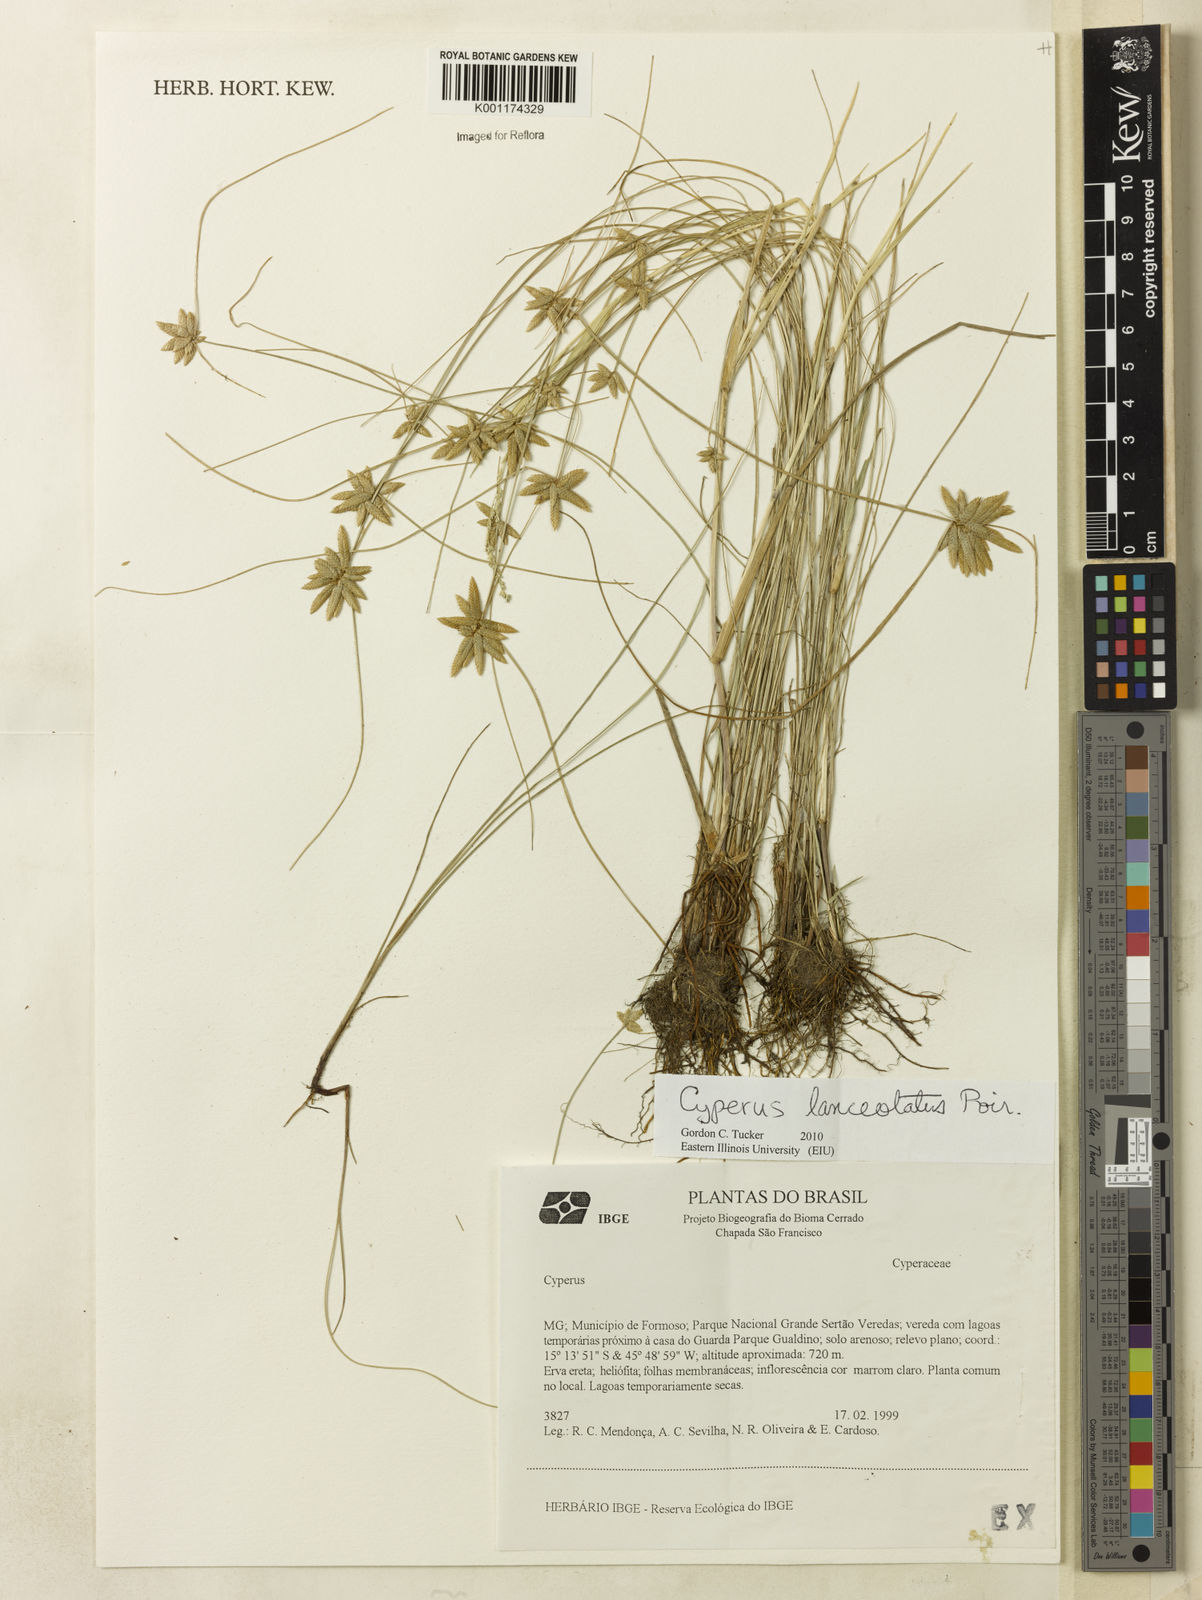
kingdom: Plantae
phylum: Tracheophyta
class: Liliopsida
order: Poales
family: Cyperaceae
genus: Cyperus
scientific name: Cyperus
